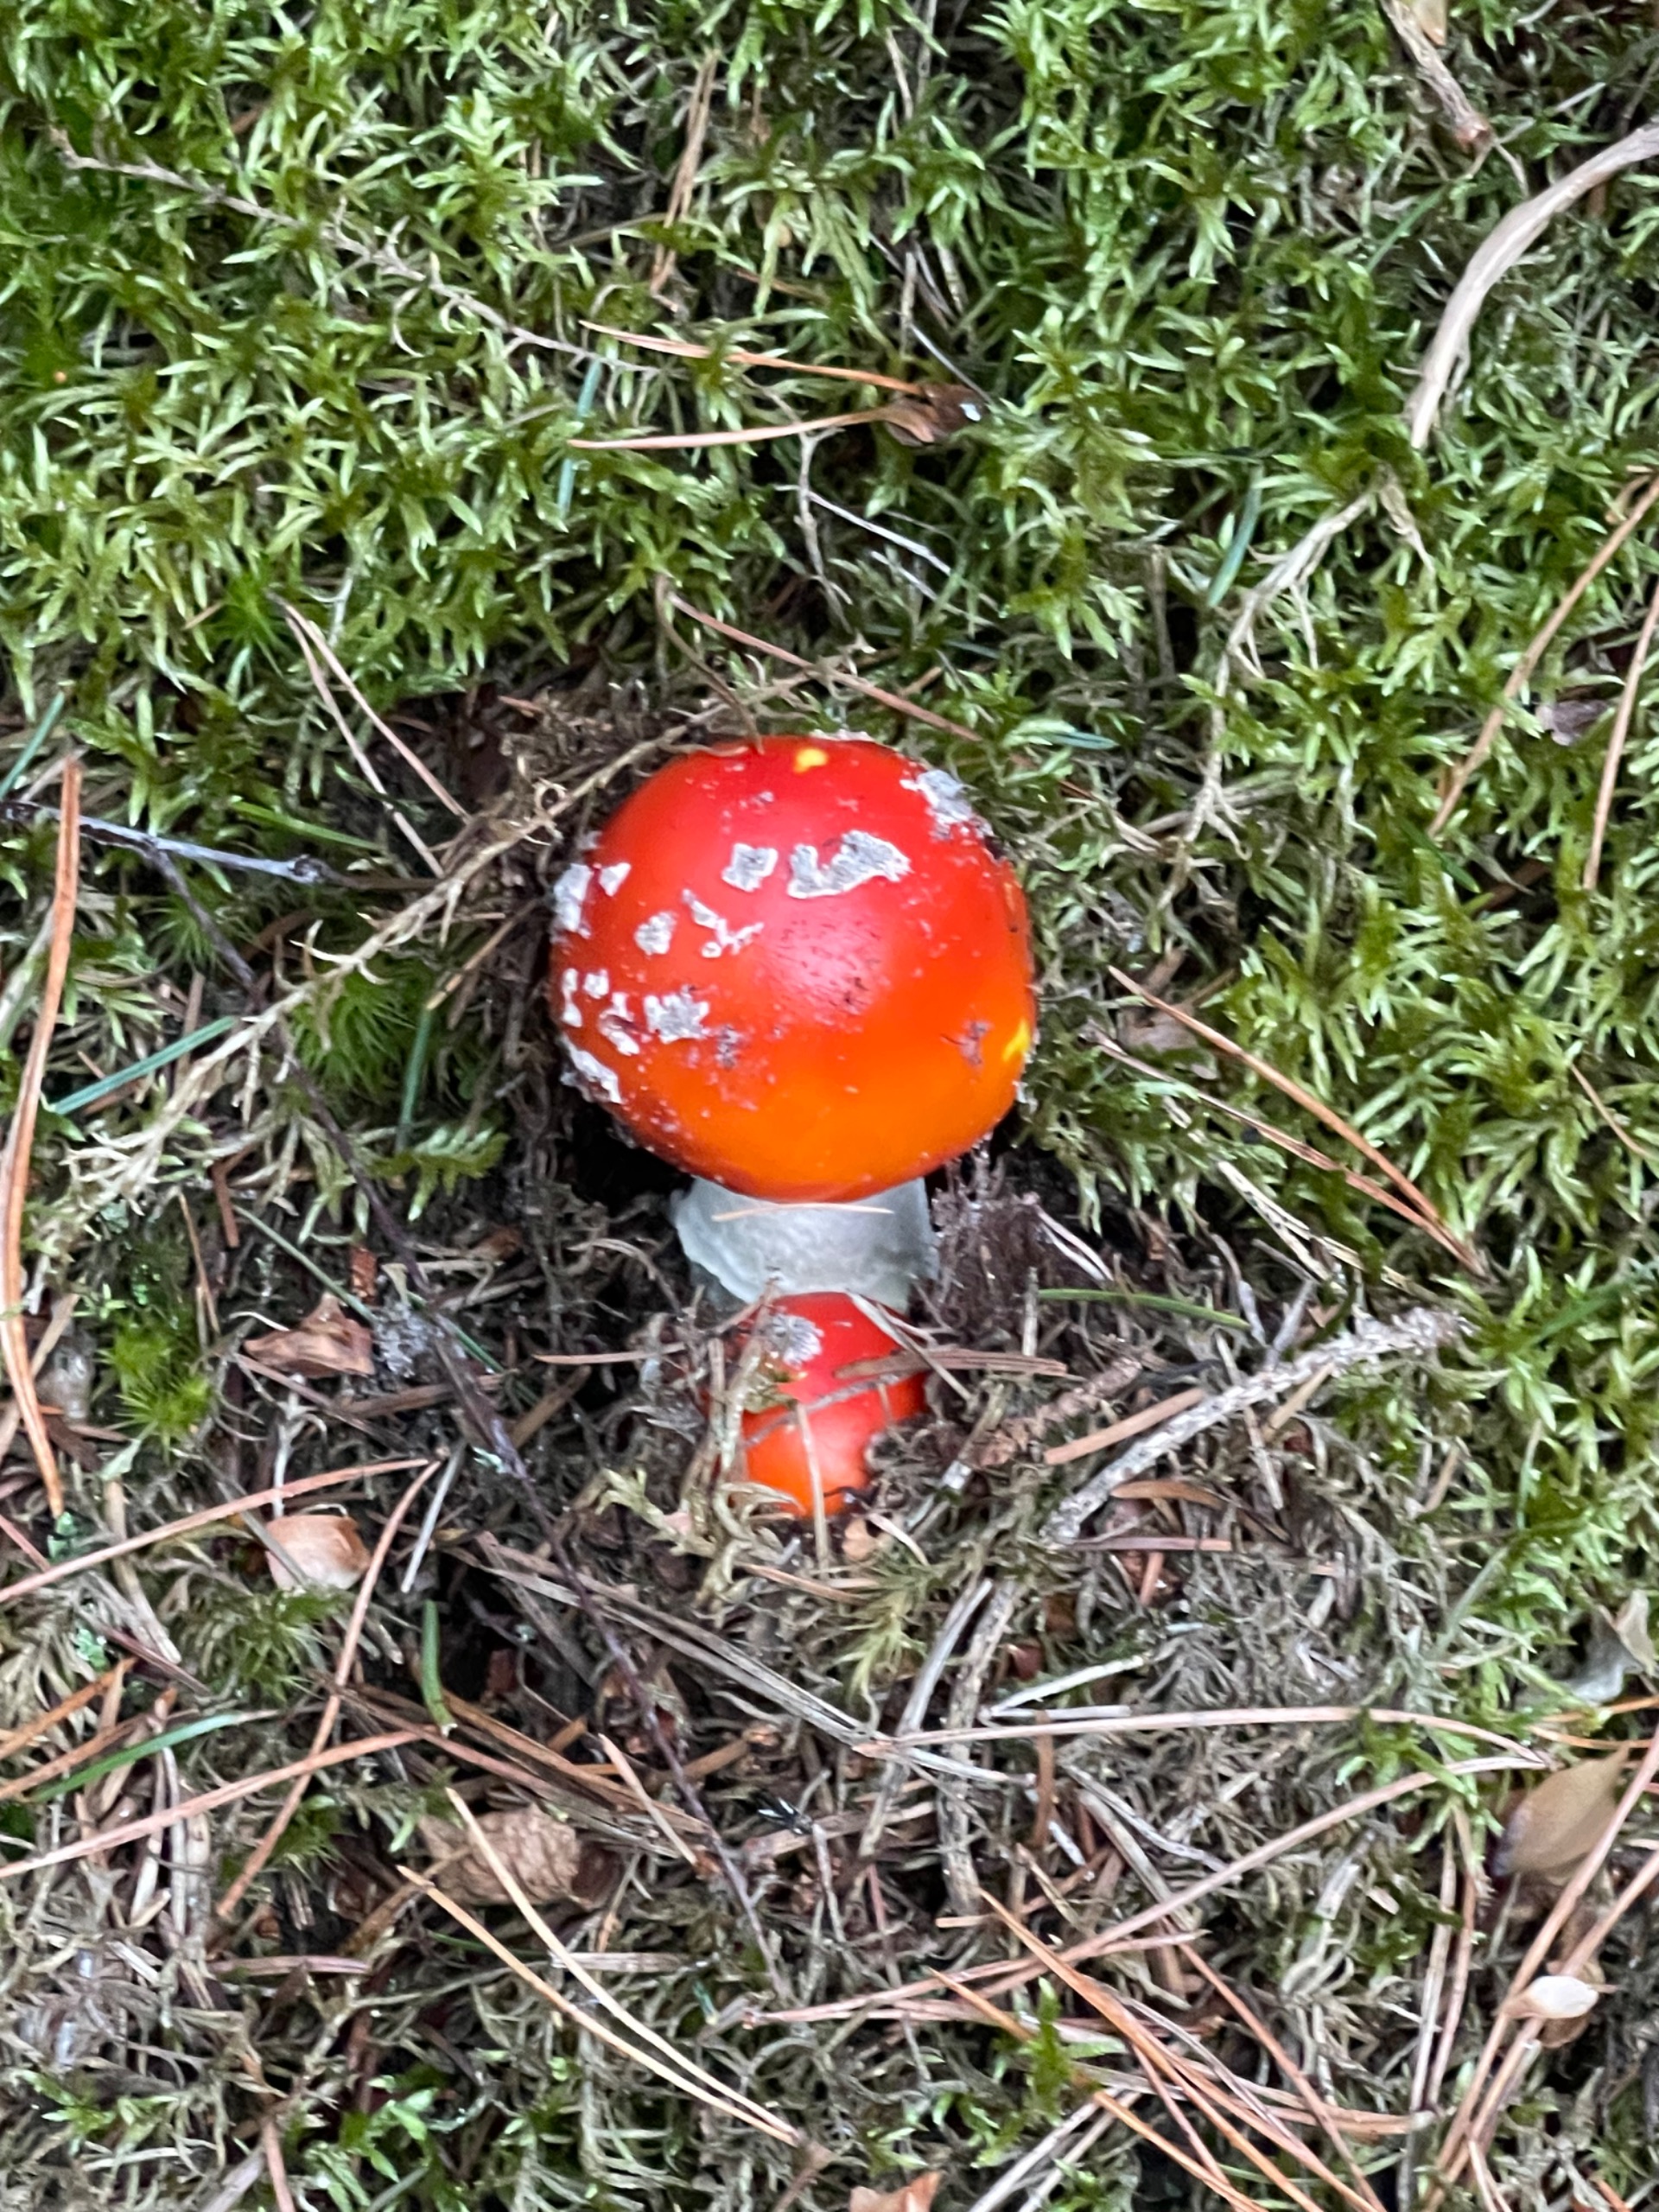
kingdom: Fungi
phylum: Basidiomycota
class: Agaricomycetes
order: Agaricales
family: Amanitaceae
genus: Amanita
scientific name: Amanita muscaria
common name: Rød fluesvamp
